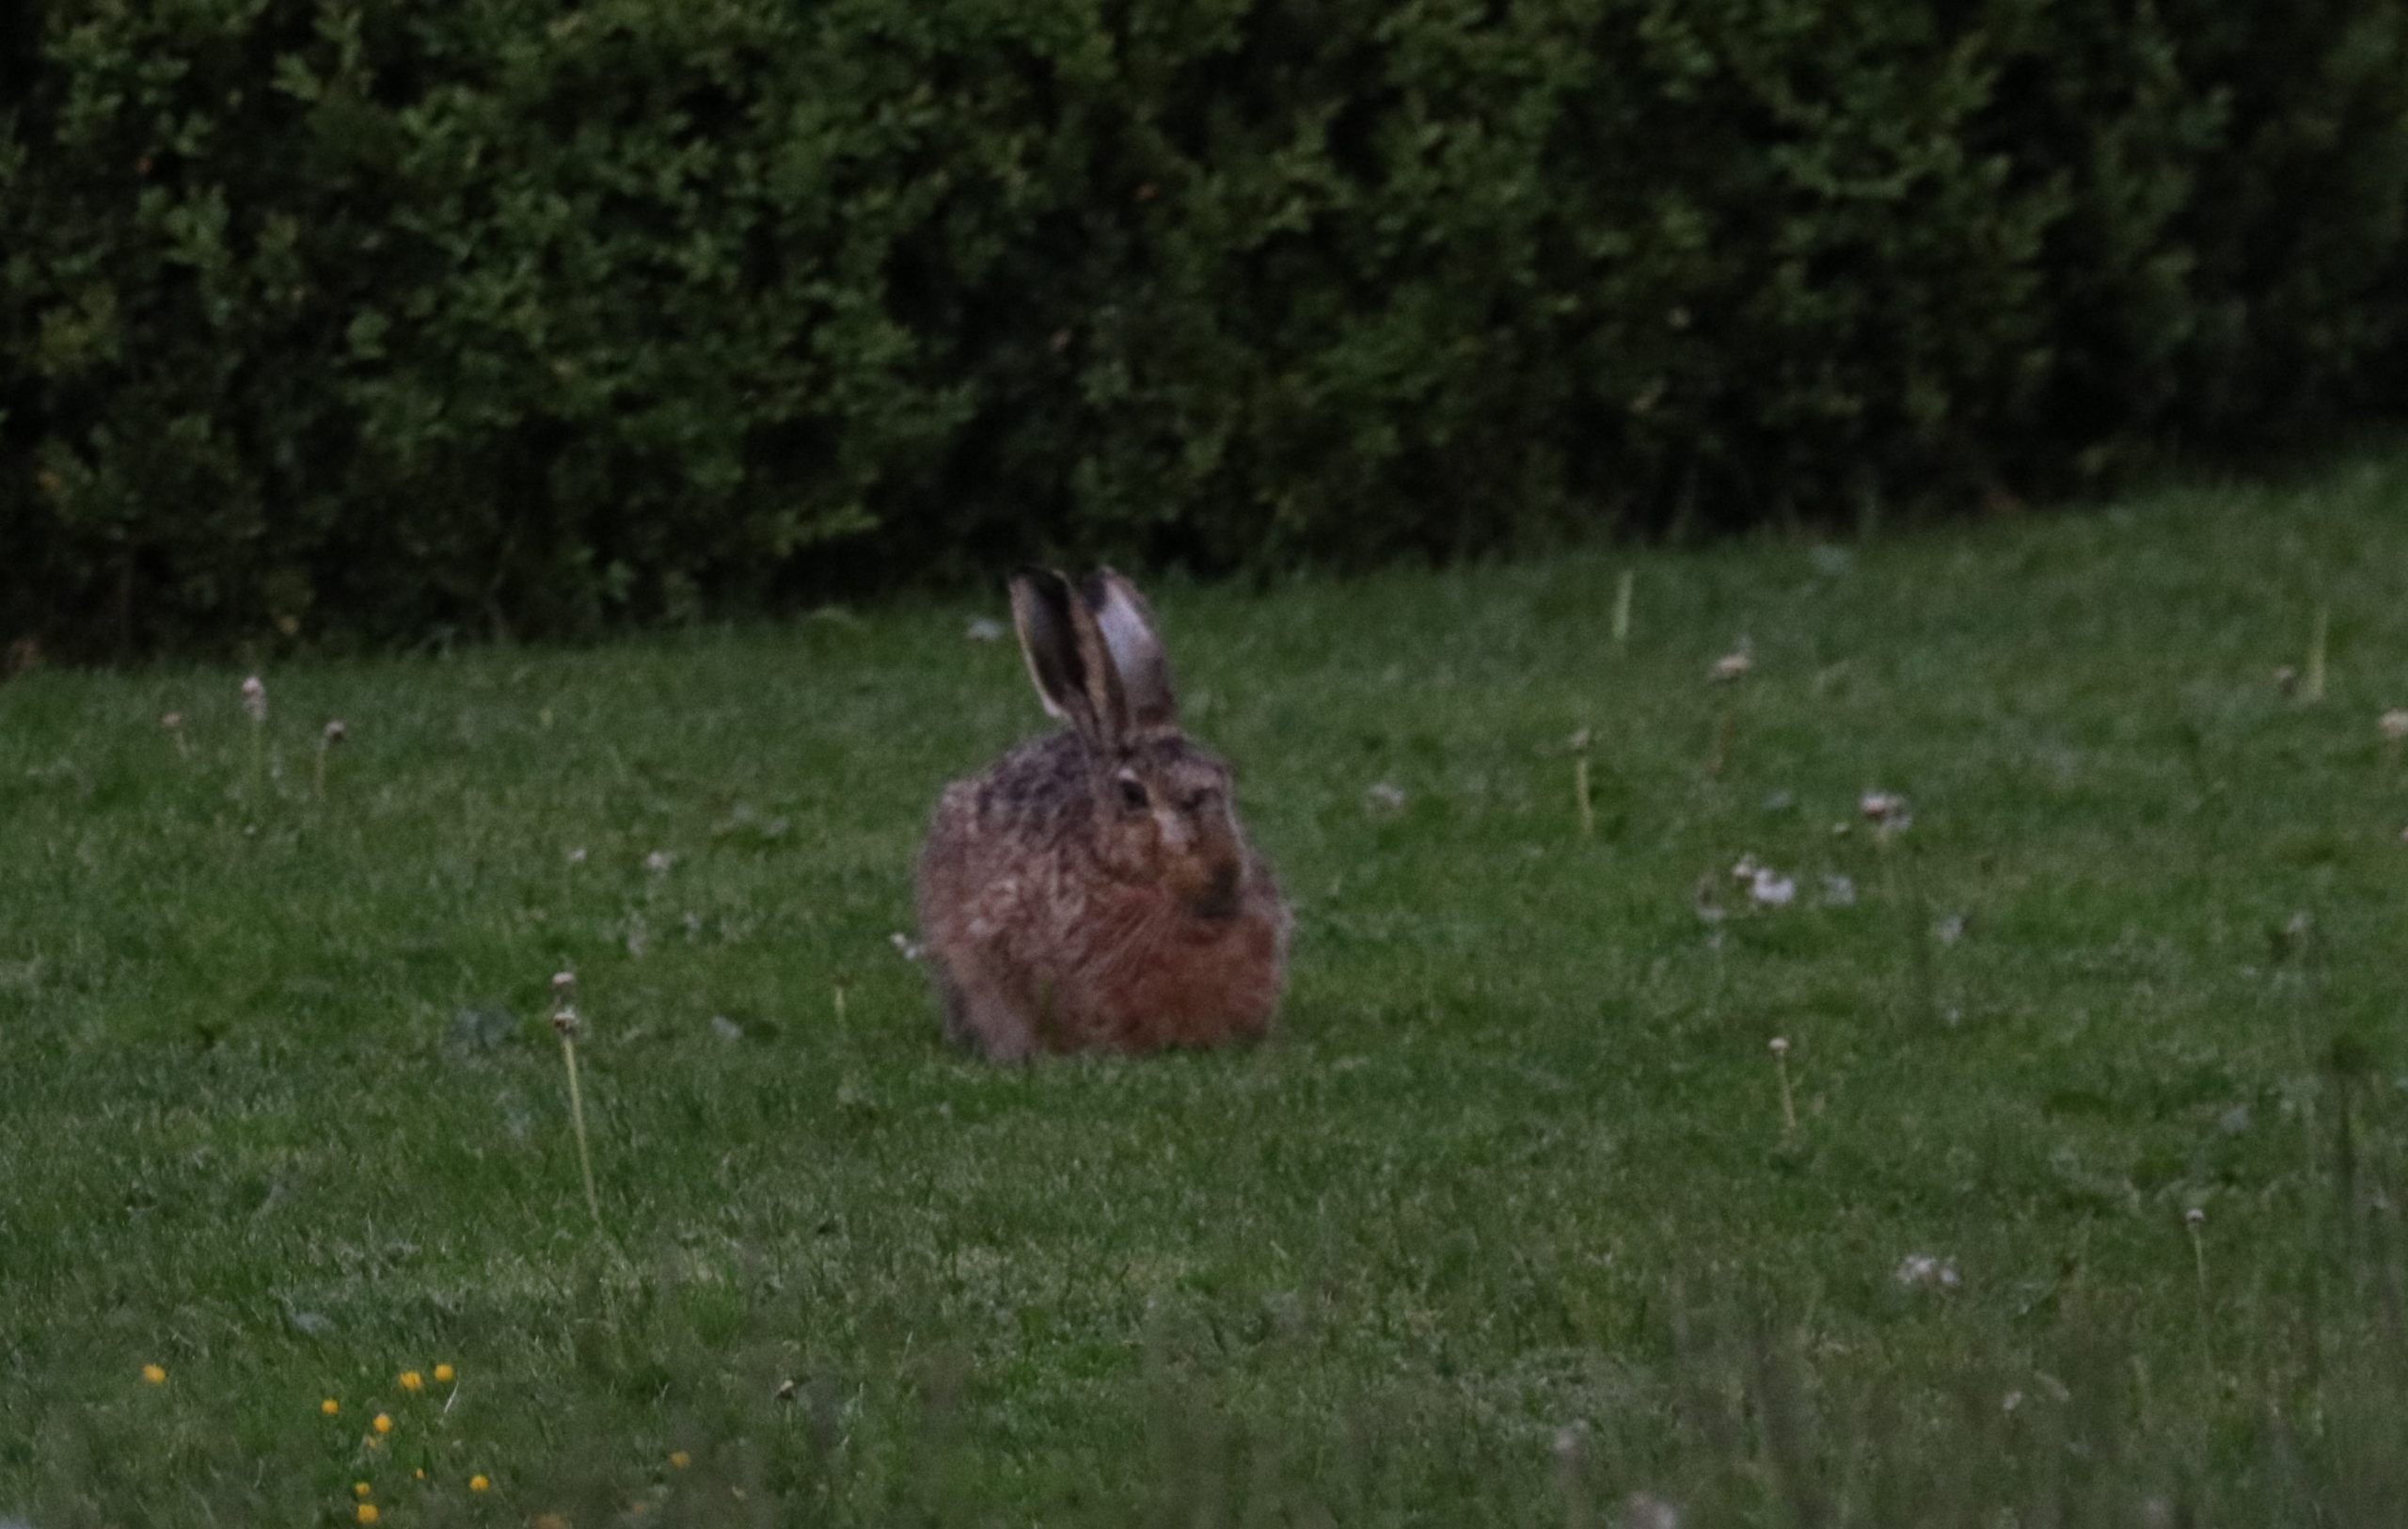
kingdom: Animalia
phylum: Chordata
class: Mammalia
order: Lagomorpha
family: Leporidae
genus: Lepus
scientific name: Lepus europaeus
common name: Hare
